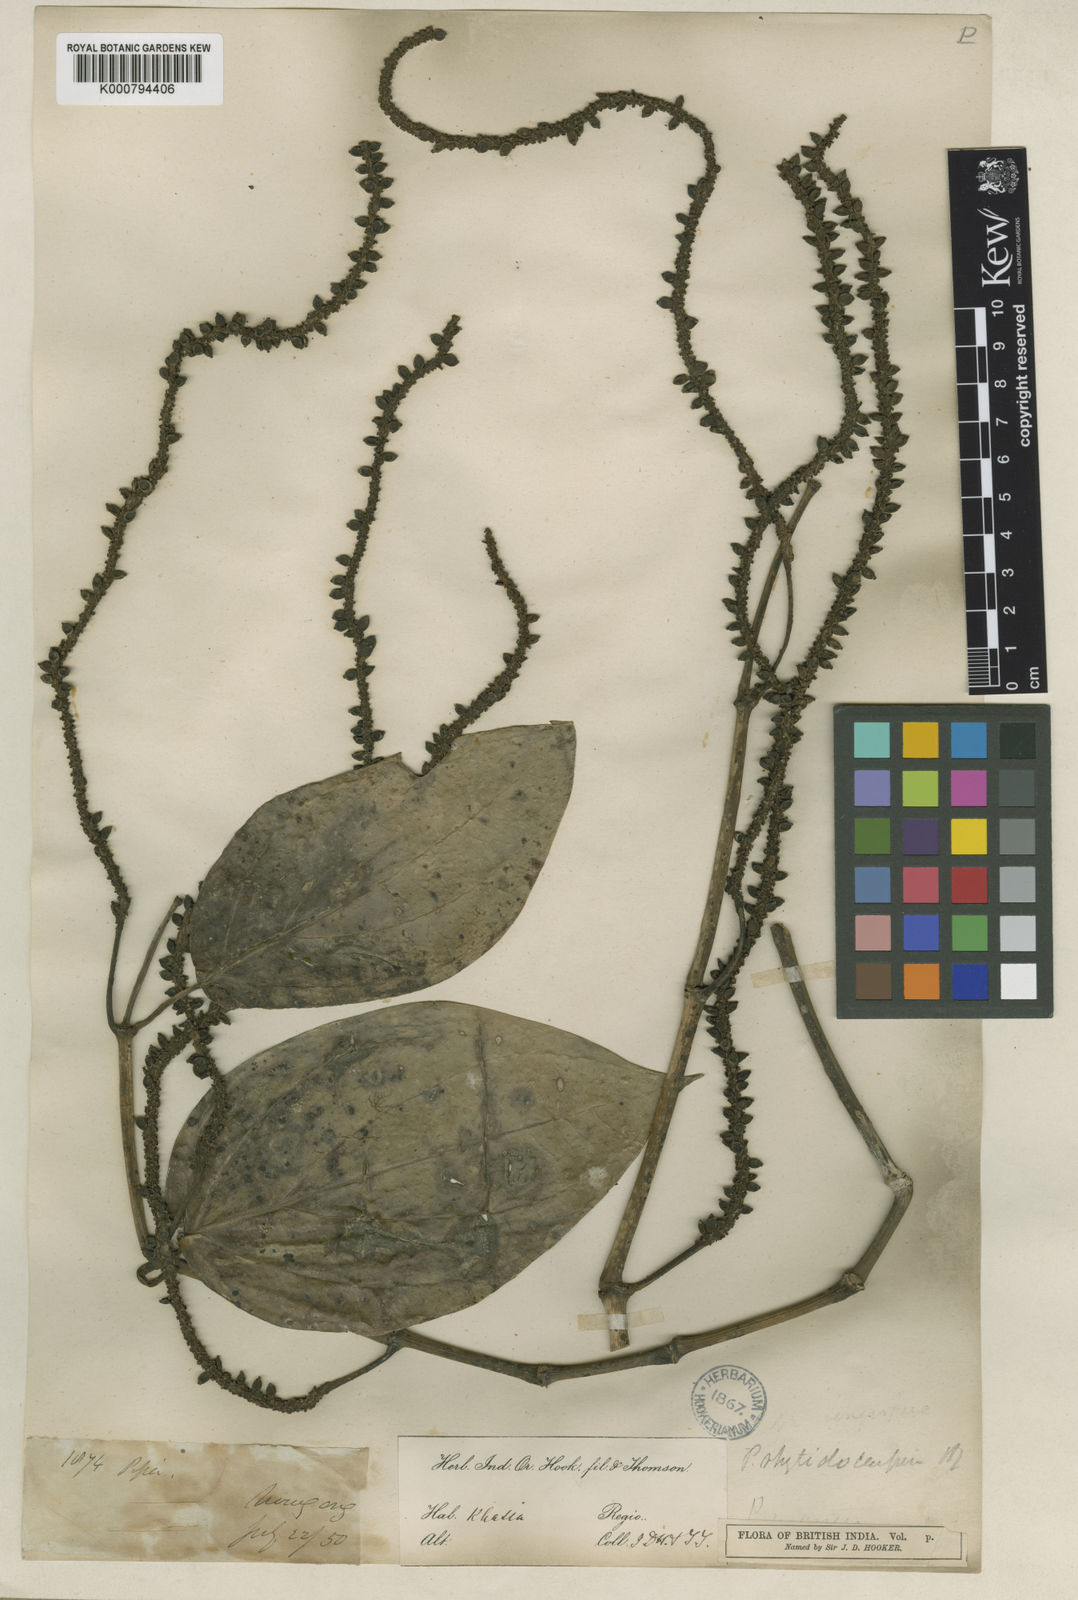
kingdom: Plantae
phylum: Tracheophyta
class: Magnoliopsida
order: Piperales
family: Piperaceae
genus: Piper
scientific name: Piper leptostachyum
